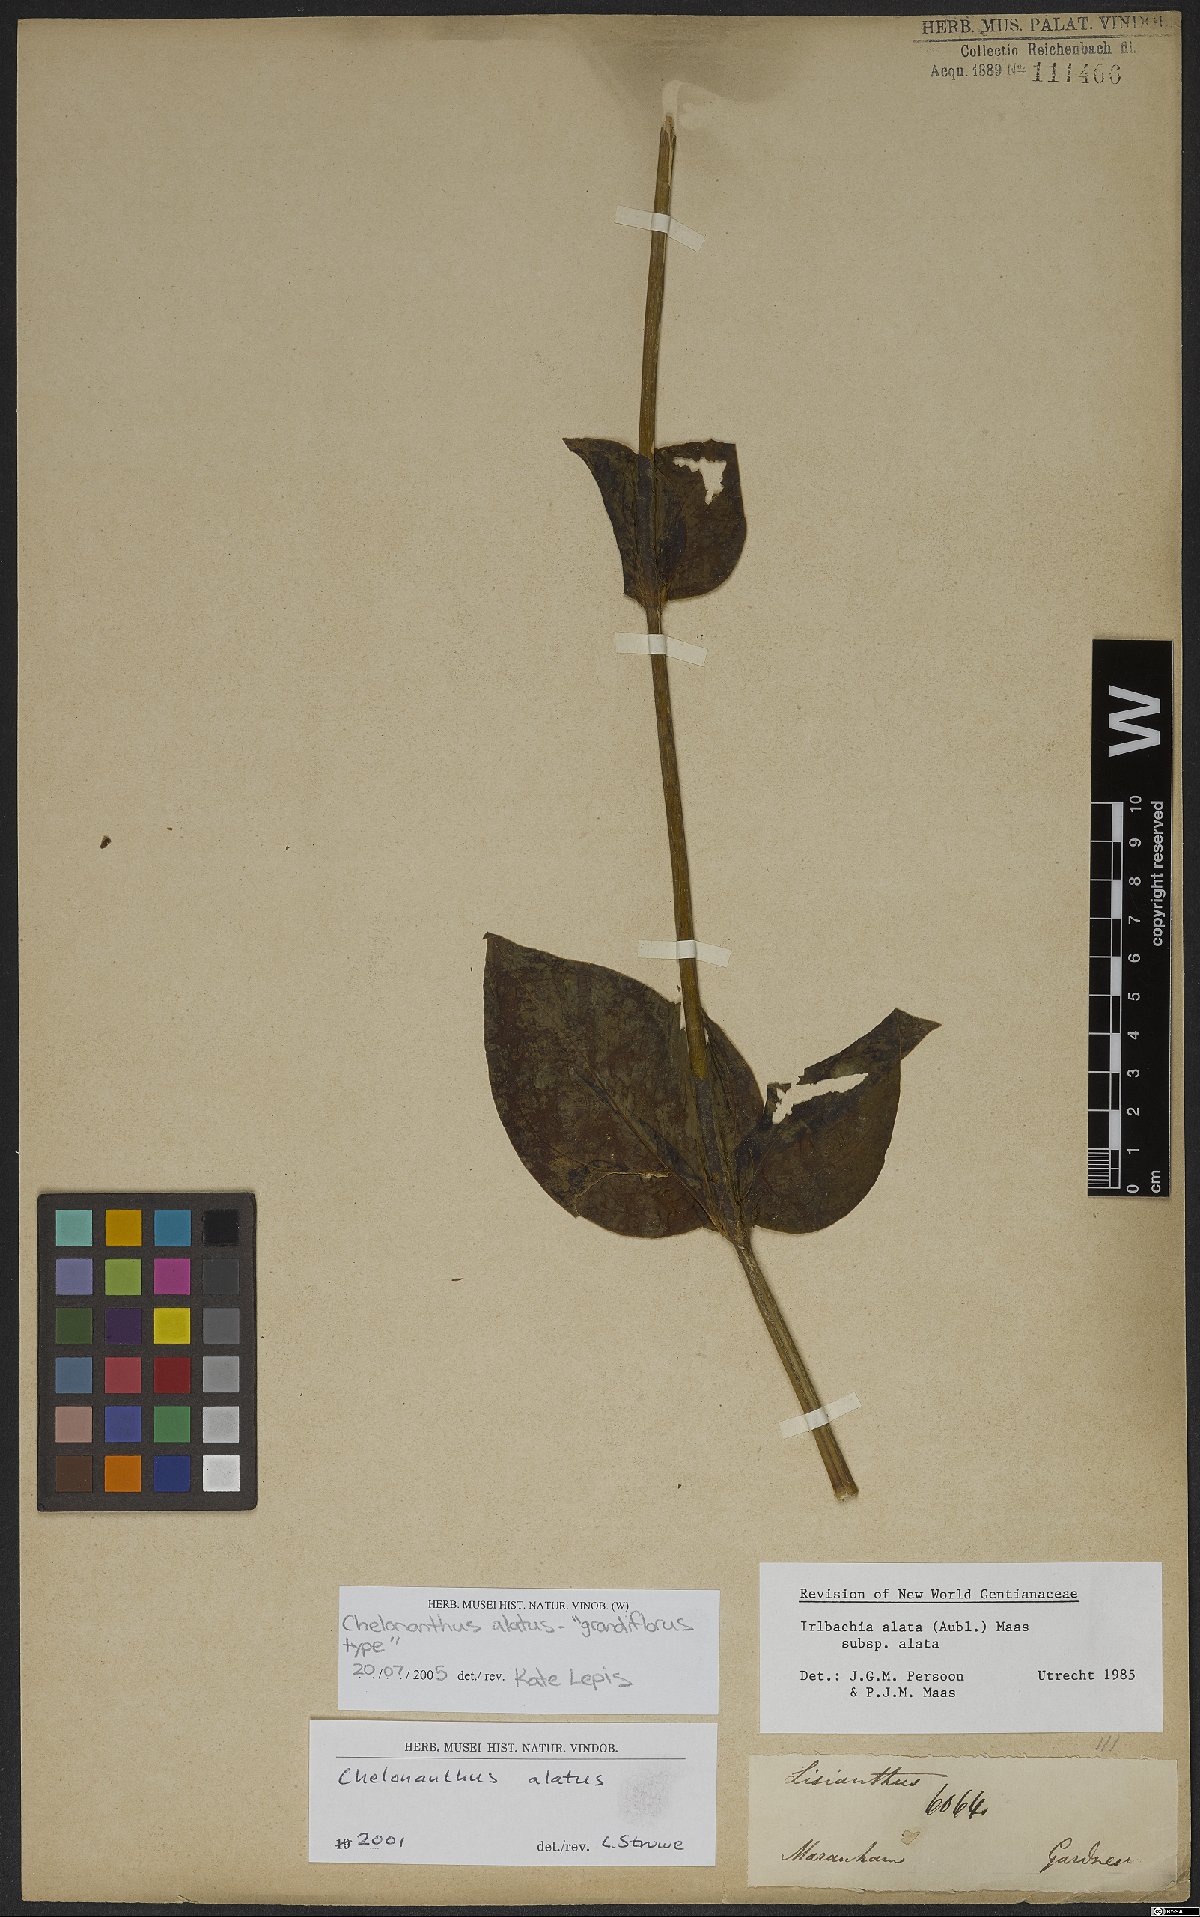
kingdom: Plantae
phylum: Tracheophyta
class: Magnoliopsida
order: Gentianales
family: Gentianaceae
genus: Chelonanthus
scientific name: Chelonanthus alatus
